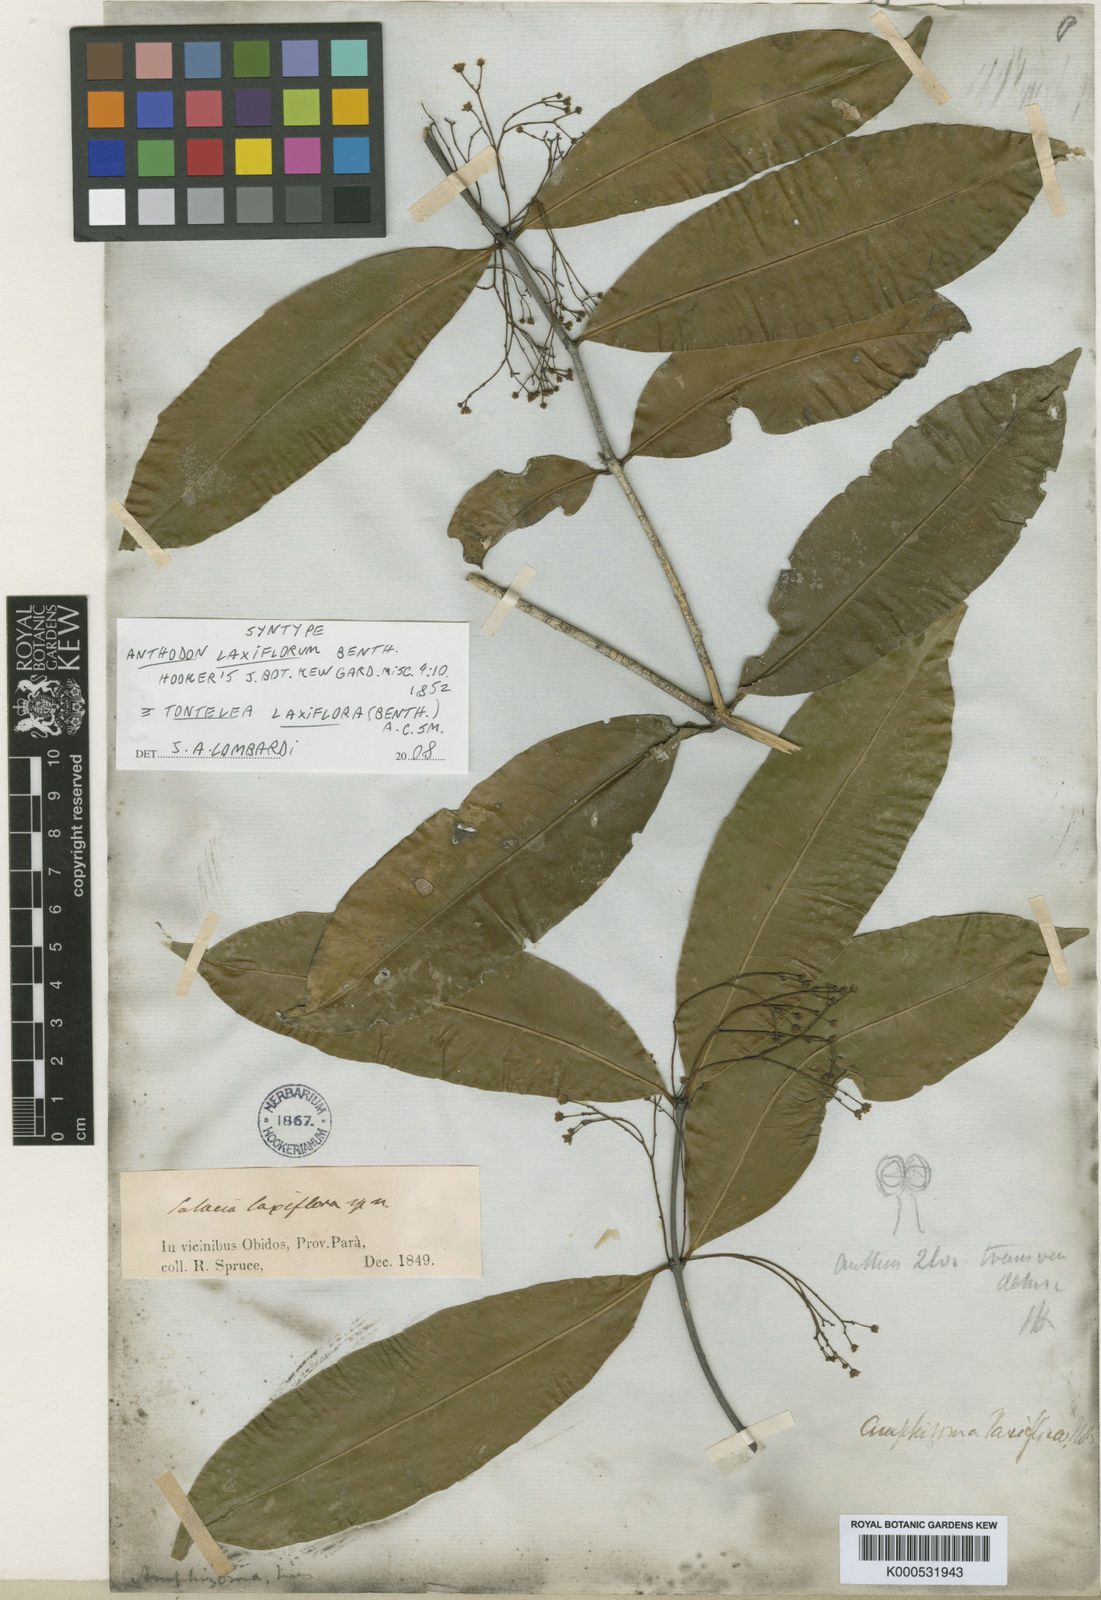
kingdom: Plantae
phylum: Tracheophyta
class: Magnoliopsida
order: Celastrales
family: Celastraceae
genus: Tontelea
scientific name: Tontelea laxiflora
